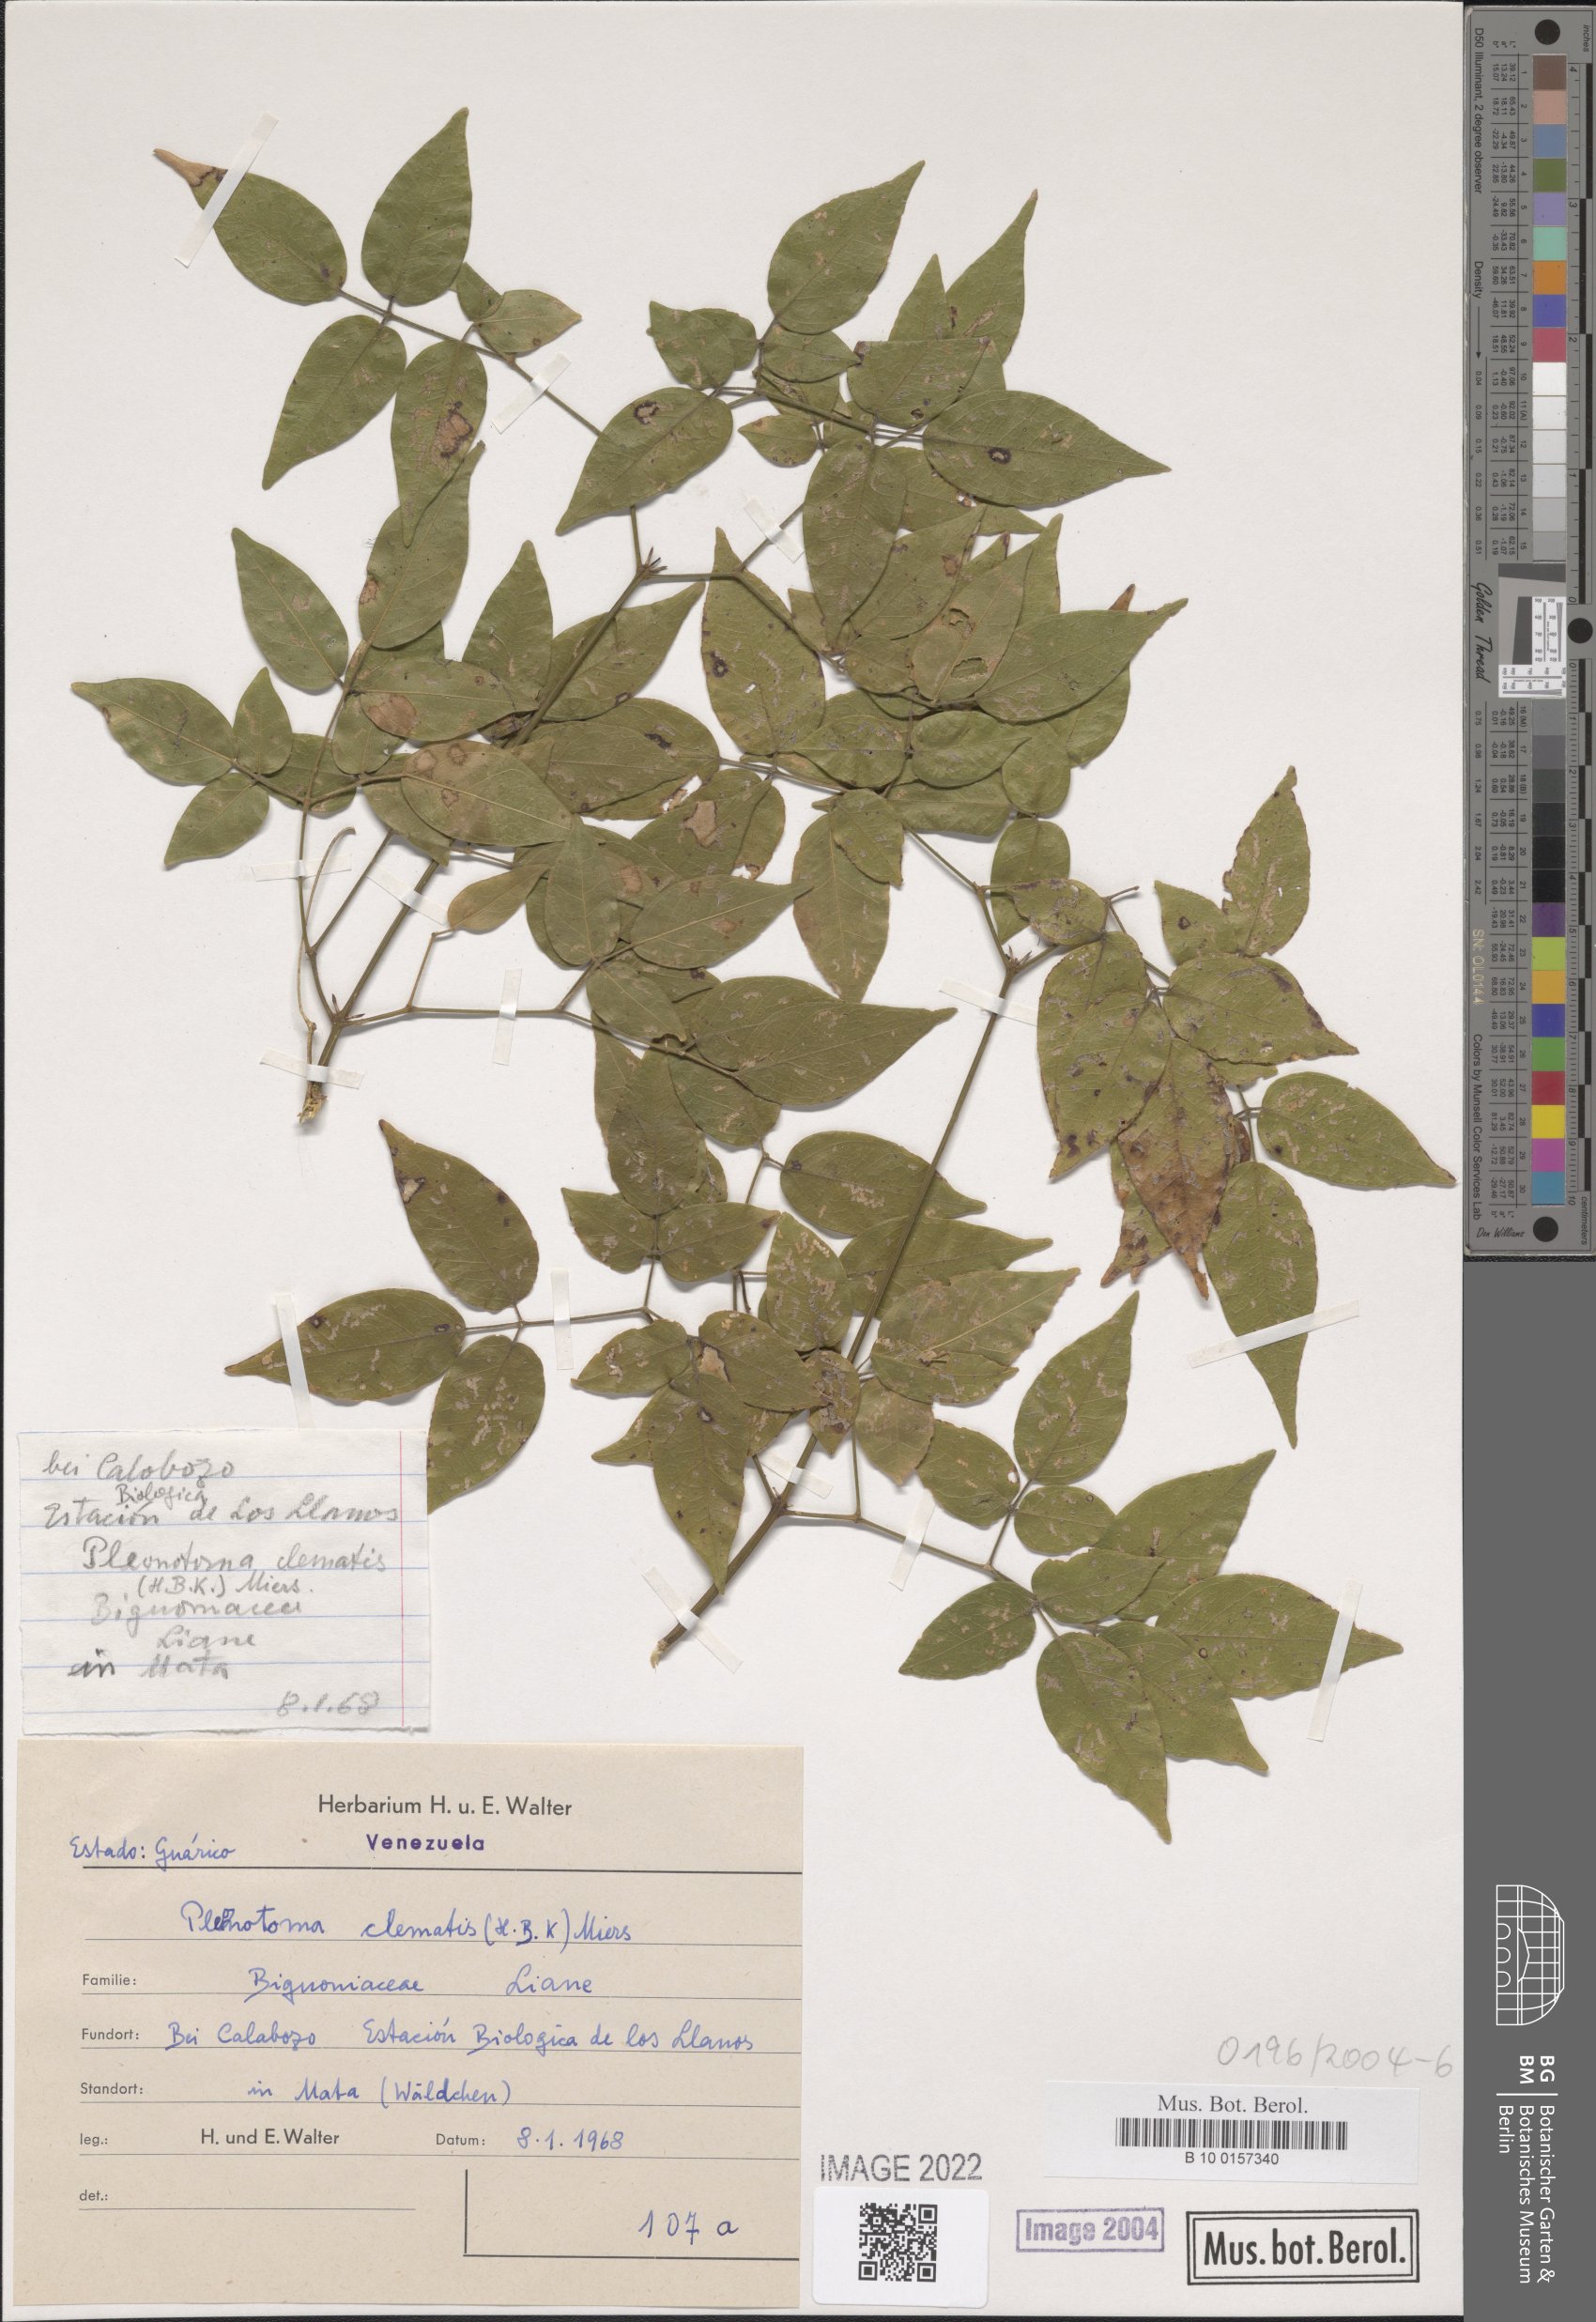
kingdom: Plantae
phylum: Tracheophyta
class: Magnoliopsida
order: Lamiales
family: Bignoniaceae
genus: Pleonotoma
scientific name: Pleonotoma clematis
